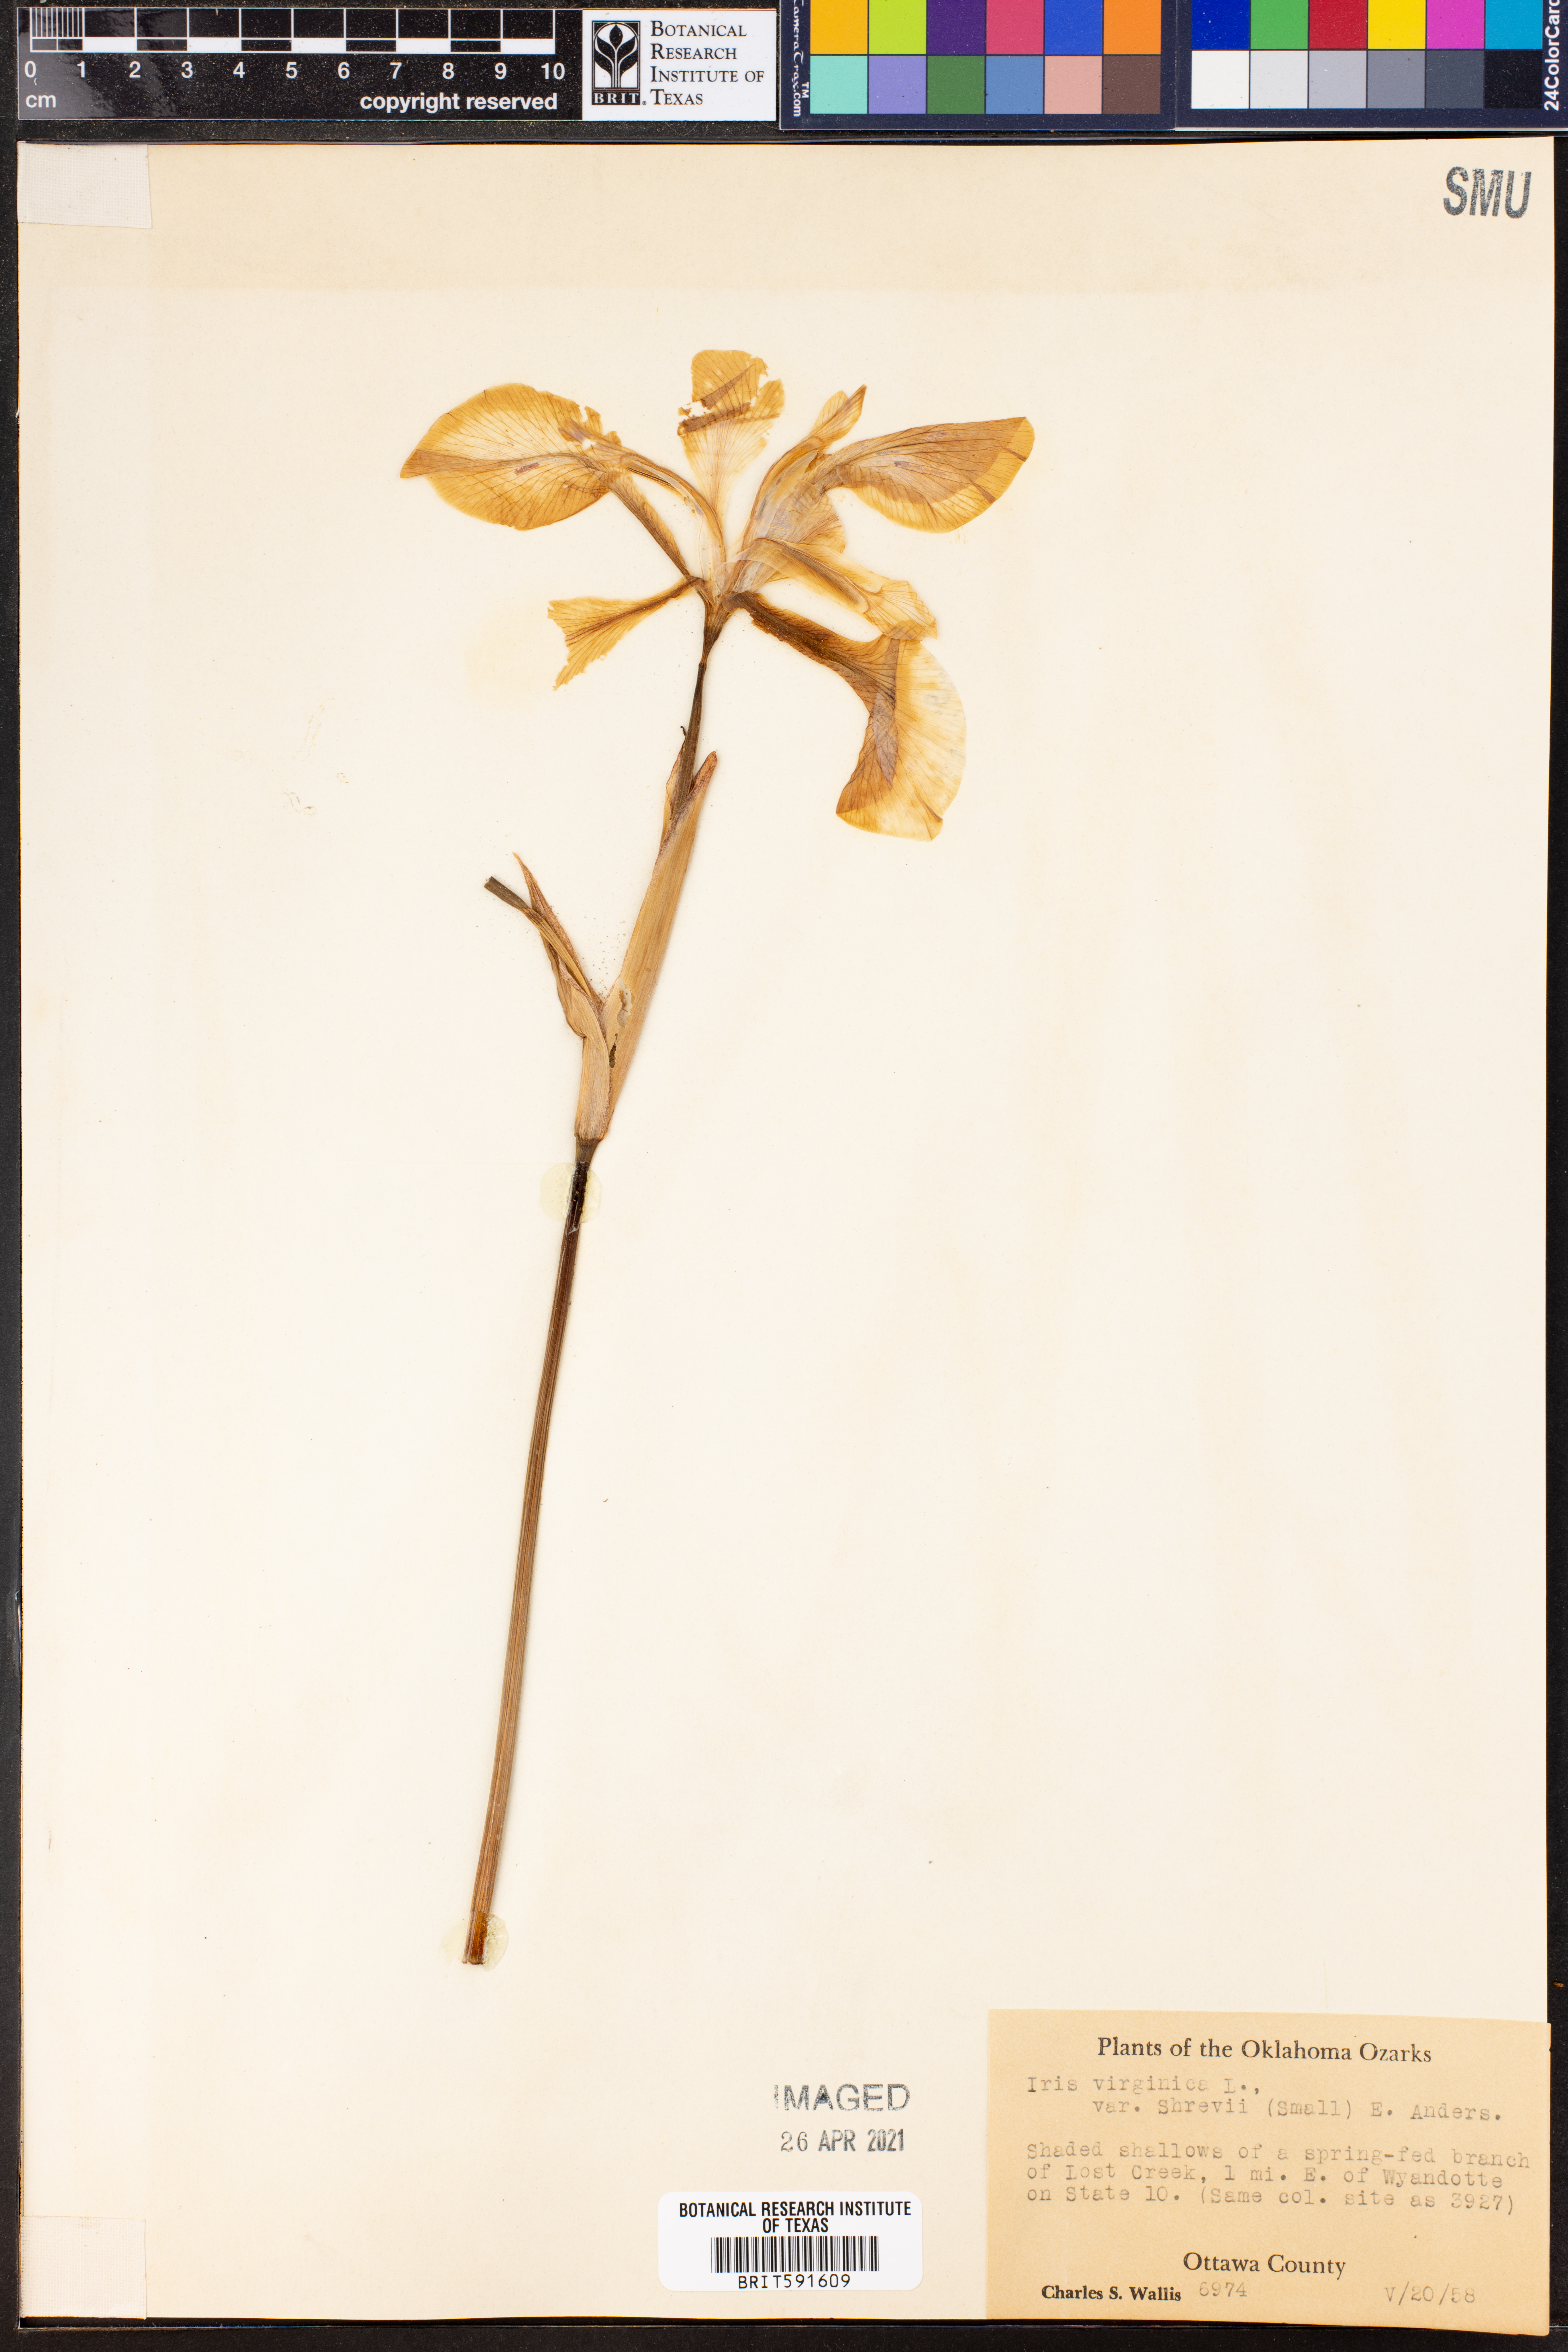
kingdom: Plantae
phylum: Tracheophyta
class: Liliopsida
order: Asparagales
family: Iridaceae
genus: Iris
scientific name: Iris virginica
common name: Southern blue flag
